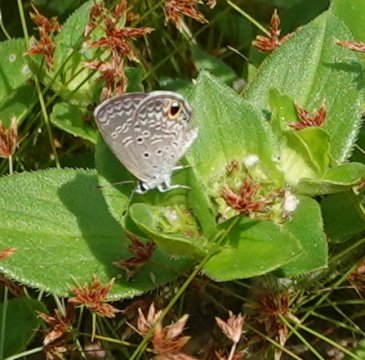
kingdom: Animalia
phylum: Arthropoda
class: Insecta
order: Lepidoptera
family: Lycaenidae
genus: Hemiargus
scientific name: Hemiargus ceraunus
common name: Ceraunus Blue
